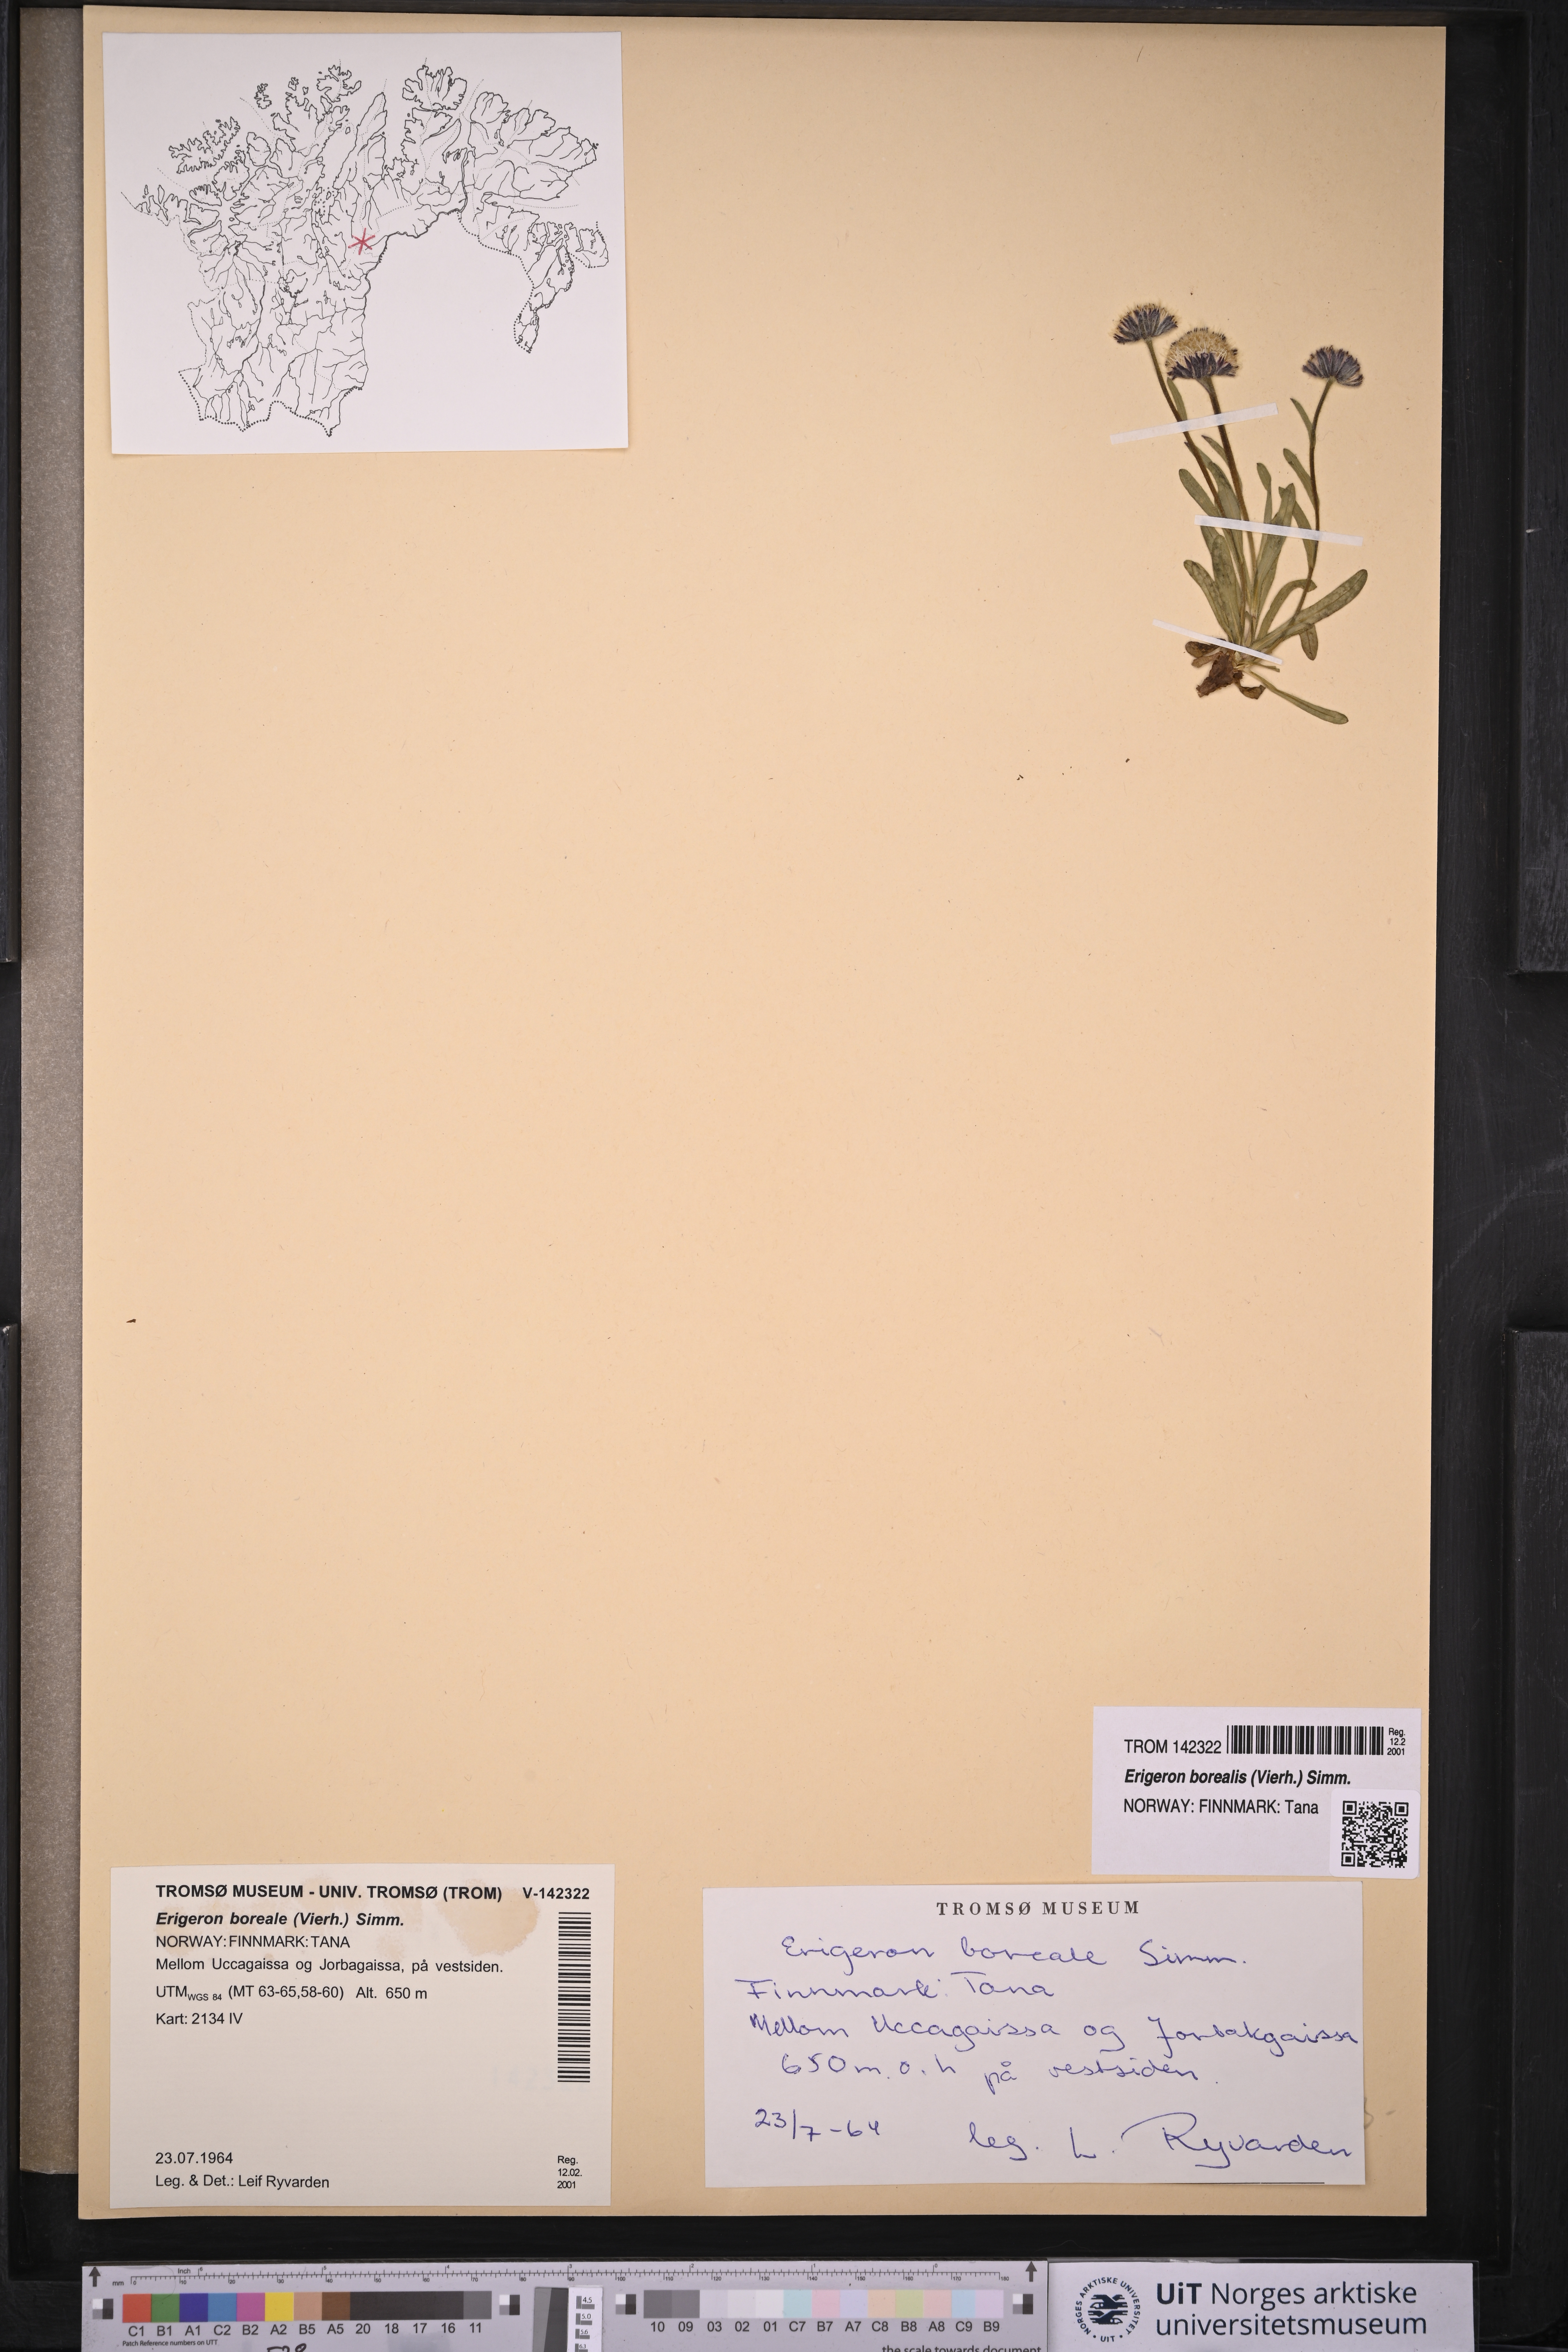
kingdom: Plantae
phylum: Tracheophyta
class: Magnoliopsida
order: Asterales
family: Asteraceae
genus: Erigeron
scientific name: Erigeron borealis
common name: Alpine fleabane
